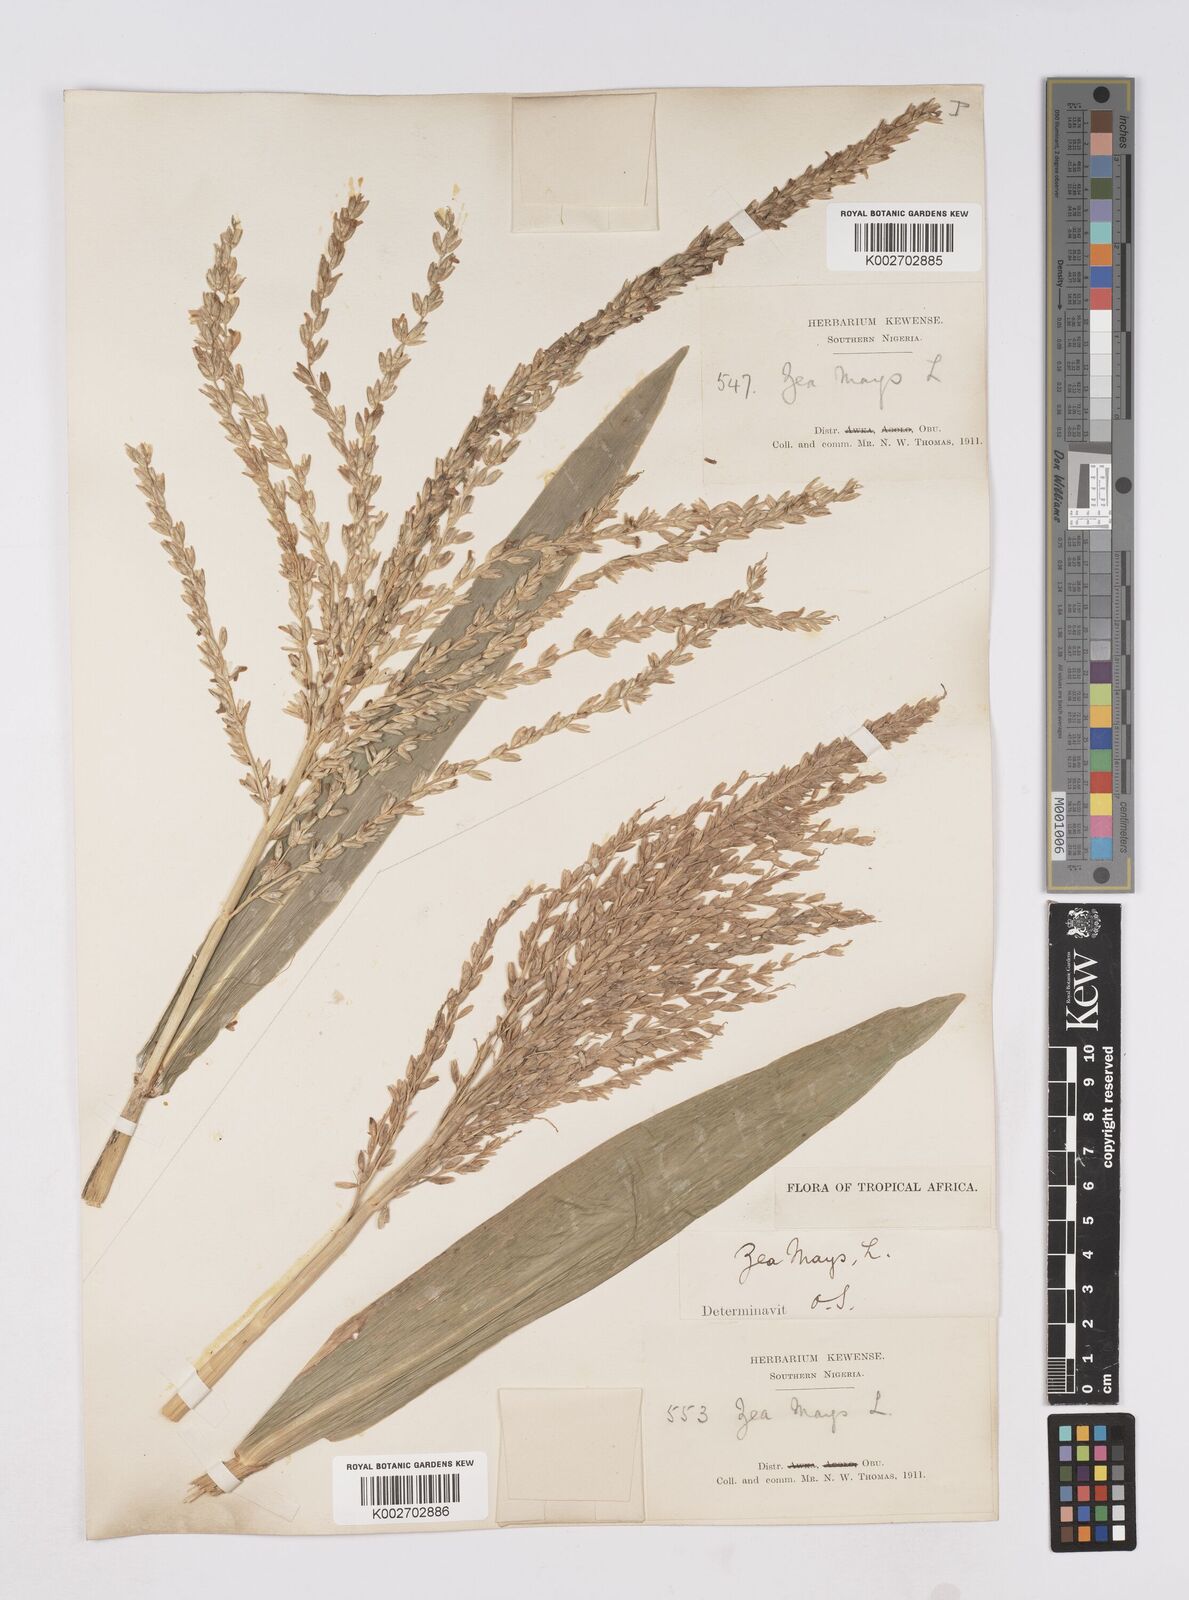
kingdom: Plantae
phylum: Tracheophyta
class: Liliopsida
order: Poales
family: Poaceae
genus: Zea
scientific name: Zea mays
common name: Maize
